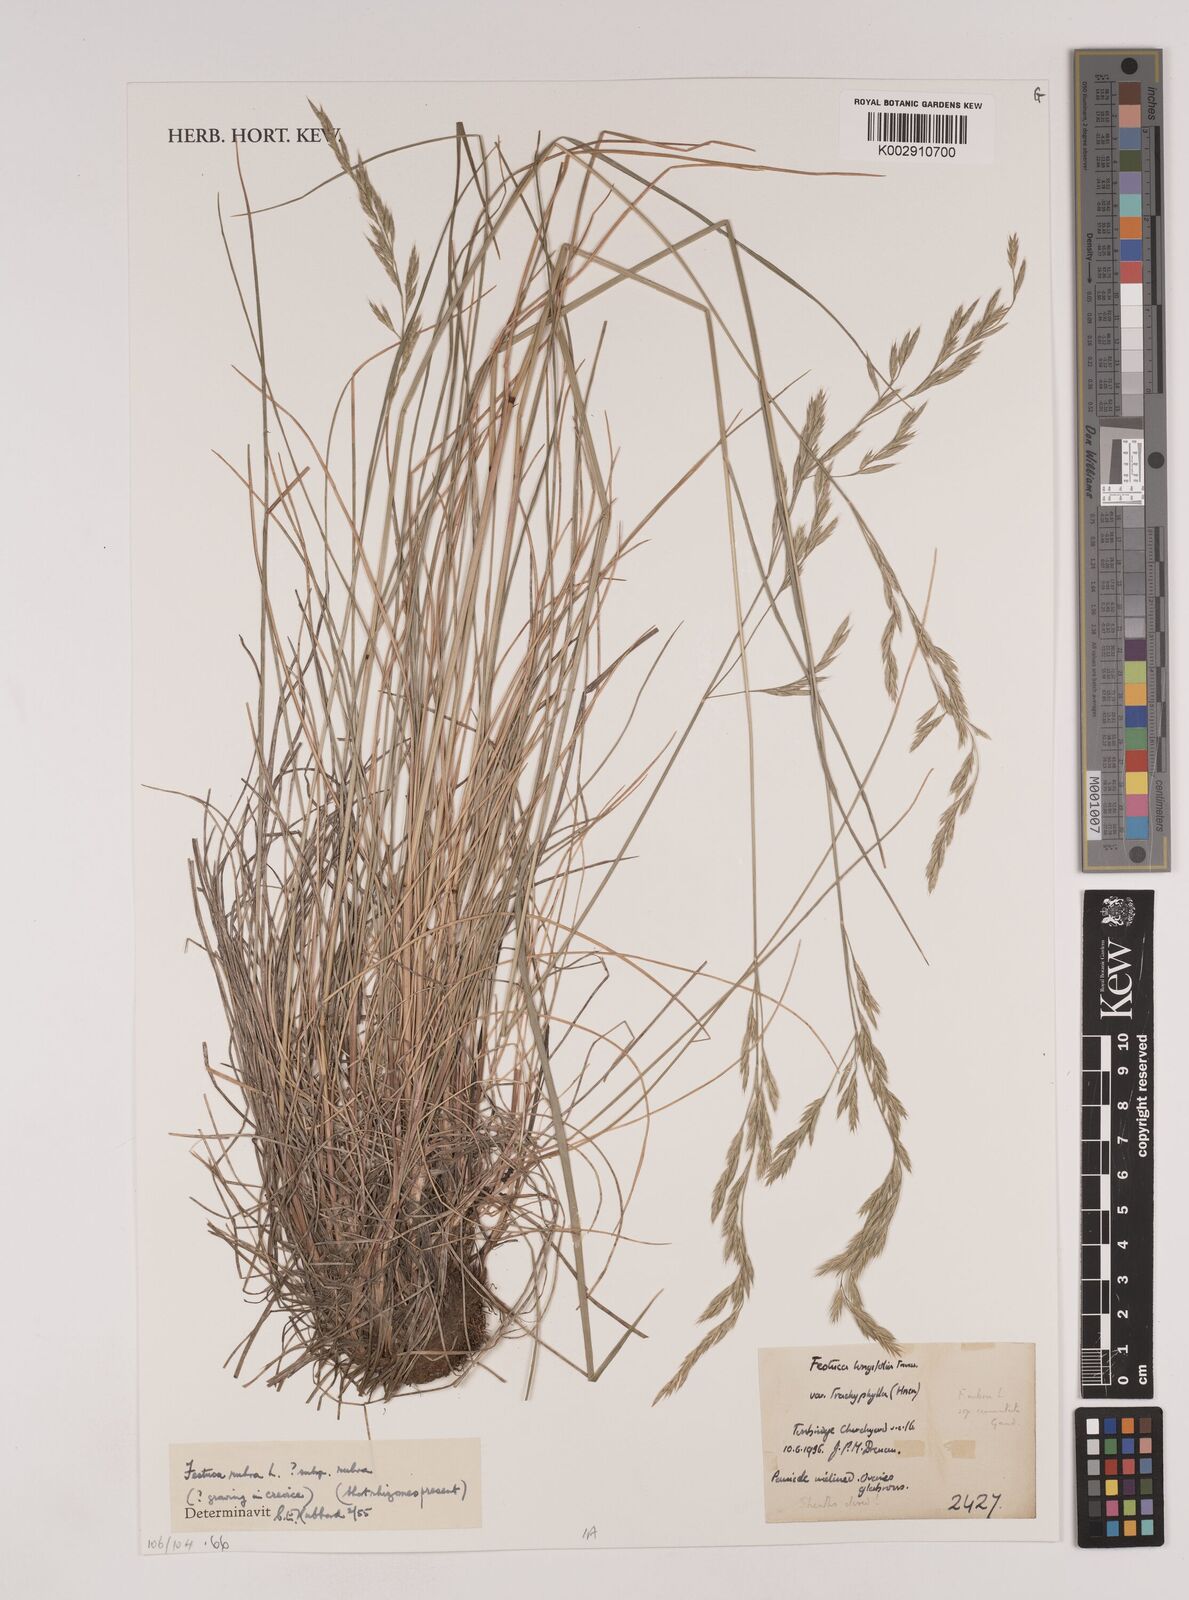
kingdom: Plantae
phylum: Tracheophyta
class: Liliopsida
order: Poales
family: Poaceae
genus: Festuca
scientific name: Festuca rubra
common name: Red fescue
